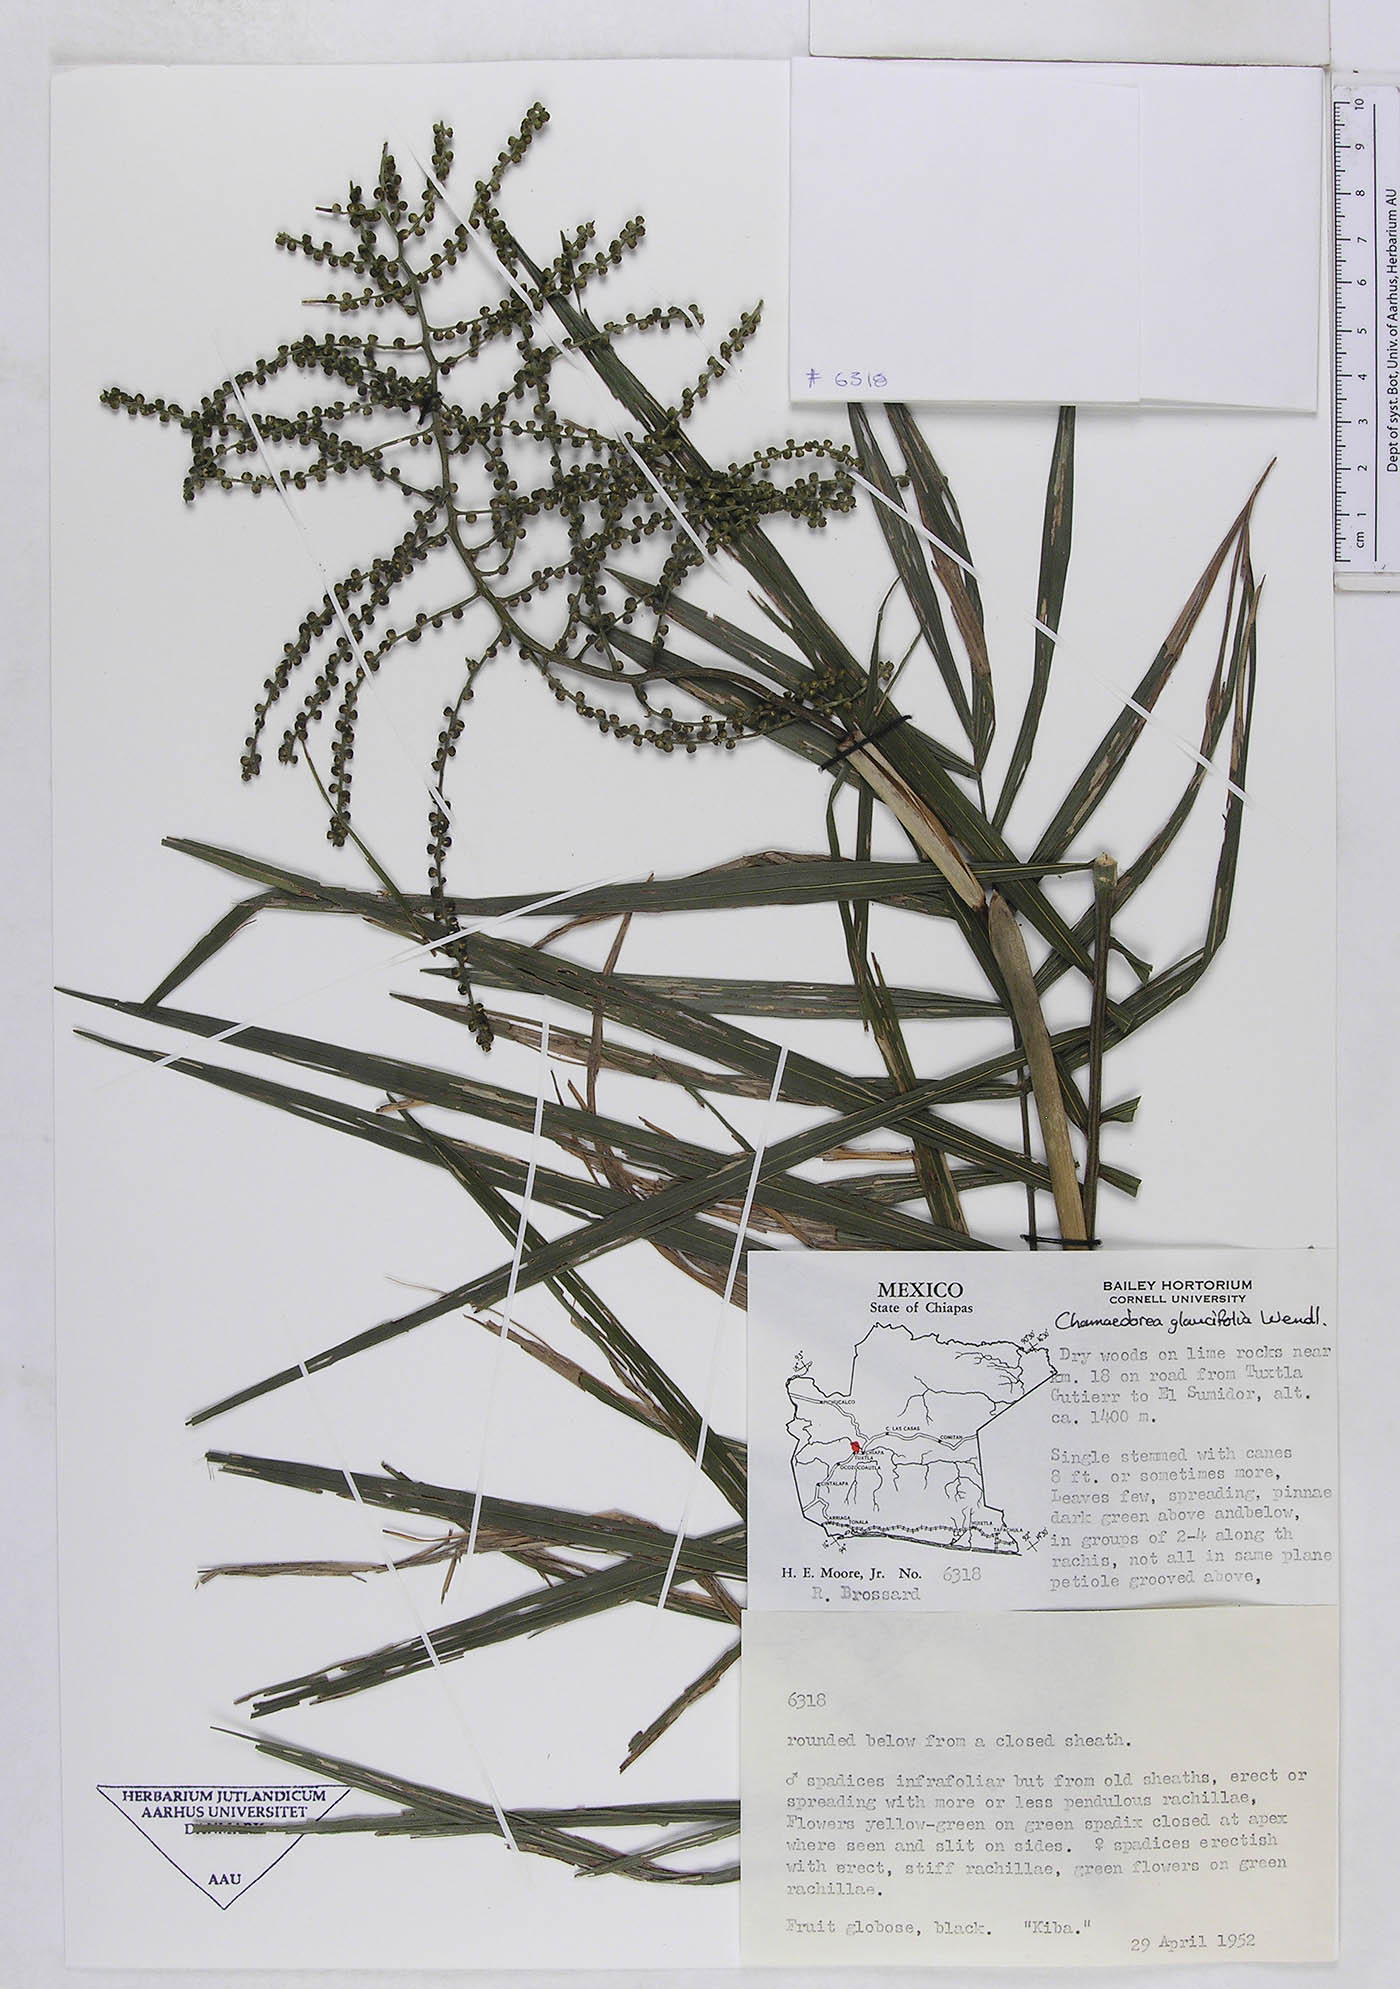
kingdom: Plantae
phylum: Tracheophyta
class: Liliopsida
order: Arecales
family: Arecaceae
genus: Chamaedorea
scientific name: Chamaedorea glaucifolia
